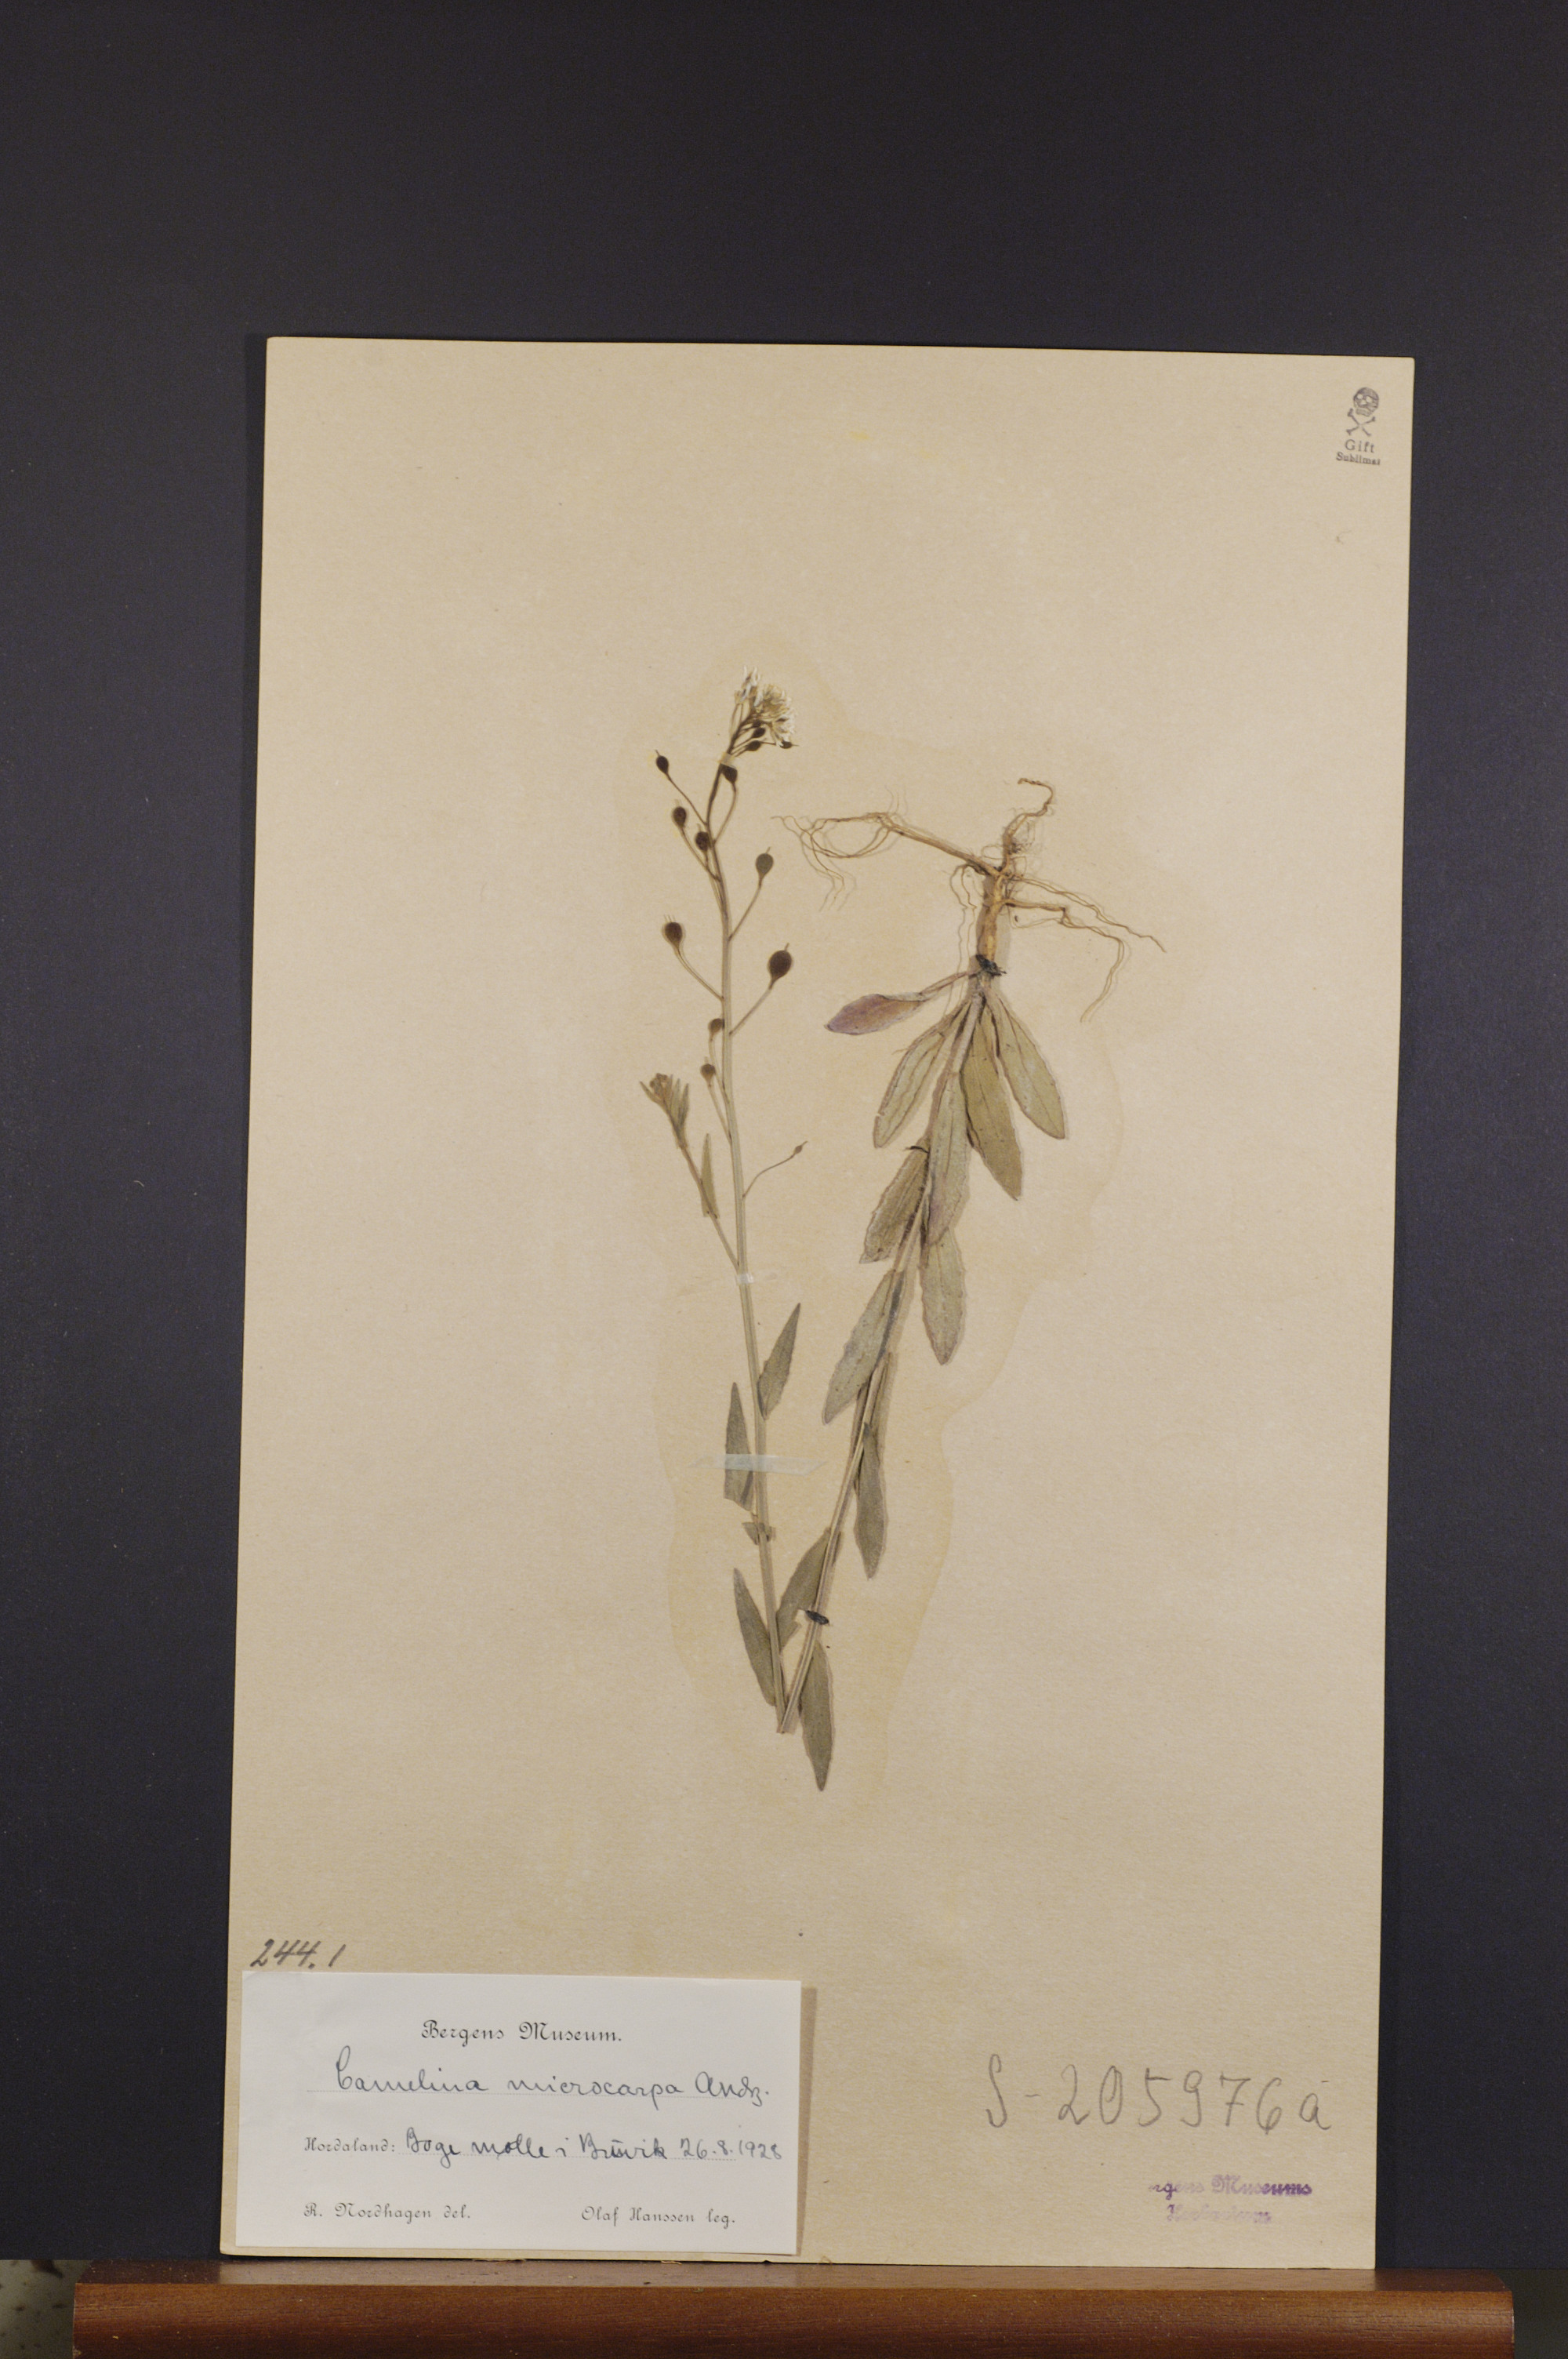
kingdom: Plantae
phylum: Tracheophyta
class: Magnoliopsida
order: Brassicales
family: Brassicaceae
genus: Camelina
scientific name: Camelina sativa
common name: Gold-of-pleasure
